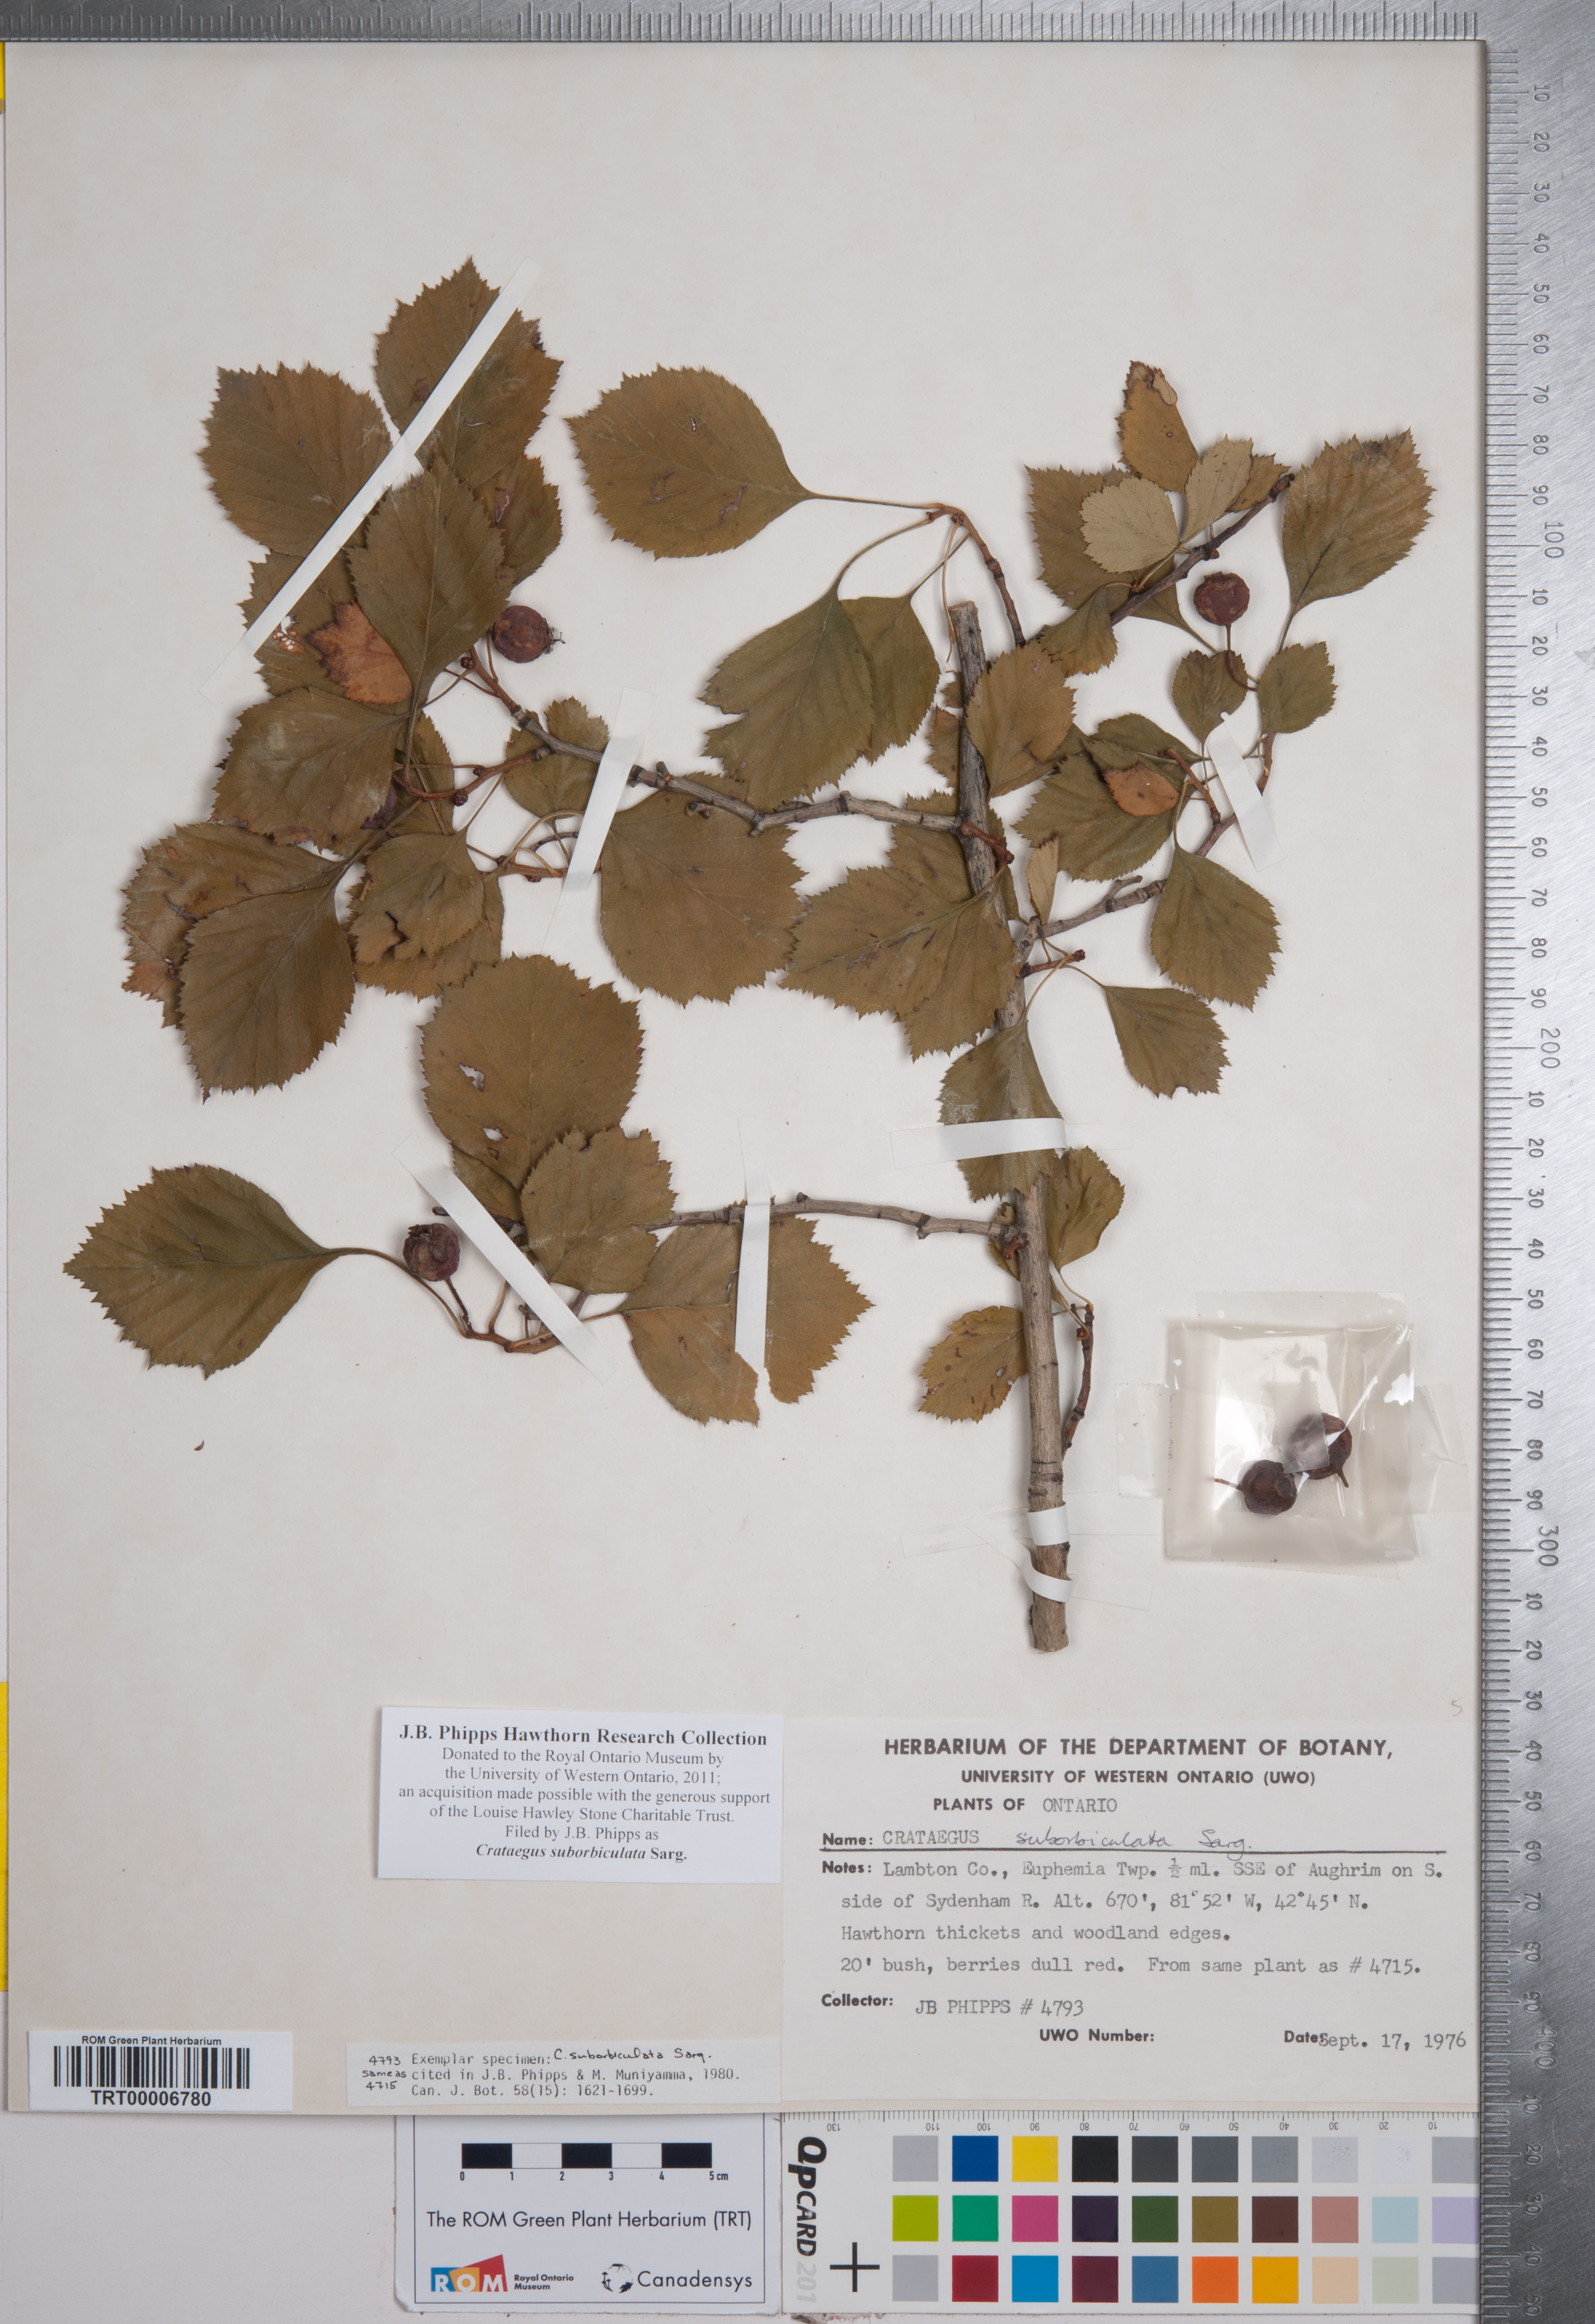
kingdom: Plantae
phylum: Tracheophyta
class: Magnoliopsida
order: Rosales
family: Rosaceae
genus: Crataegus
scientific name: Crataegus suborbiculata
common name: Caughnawaga hawthorn
